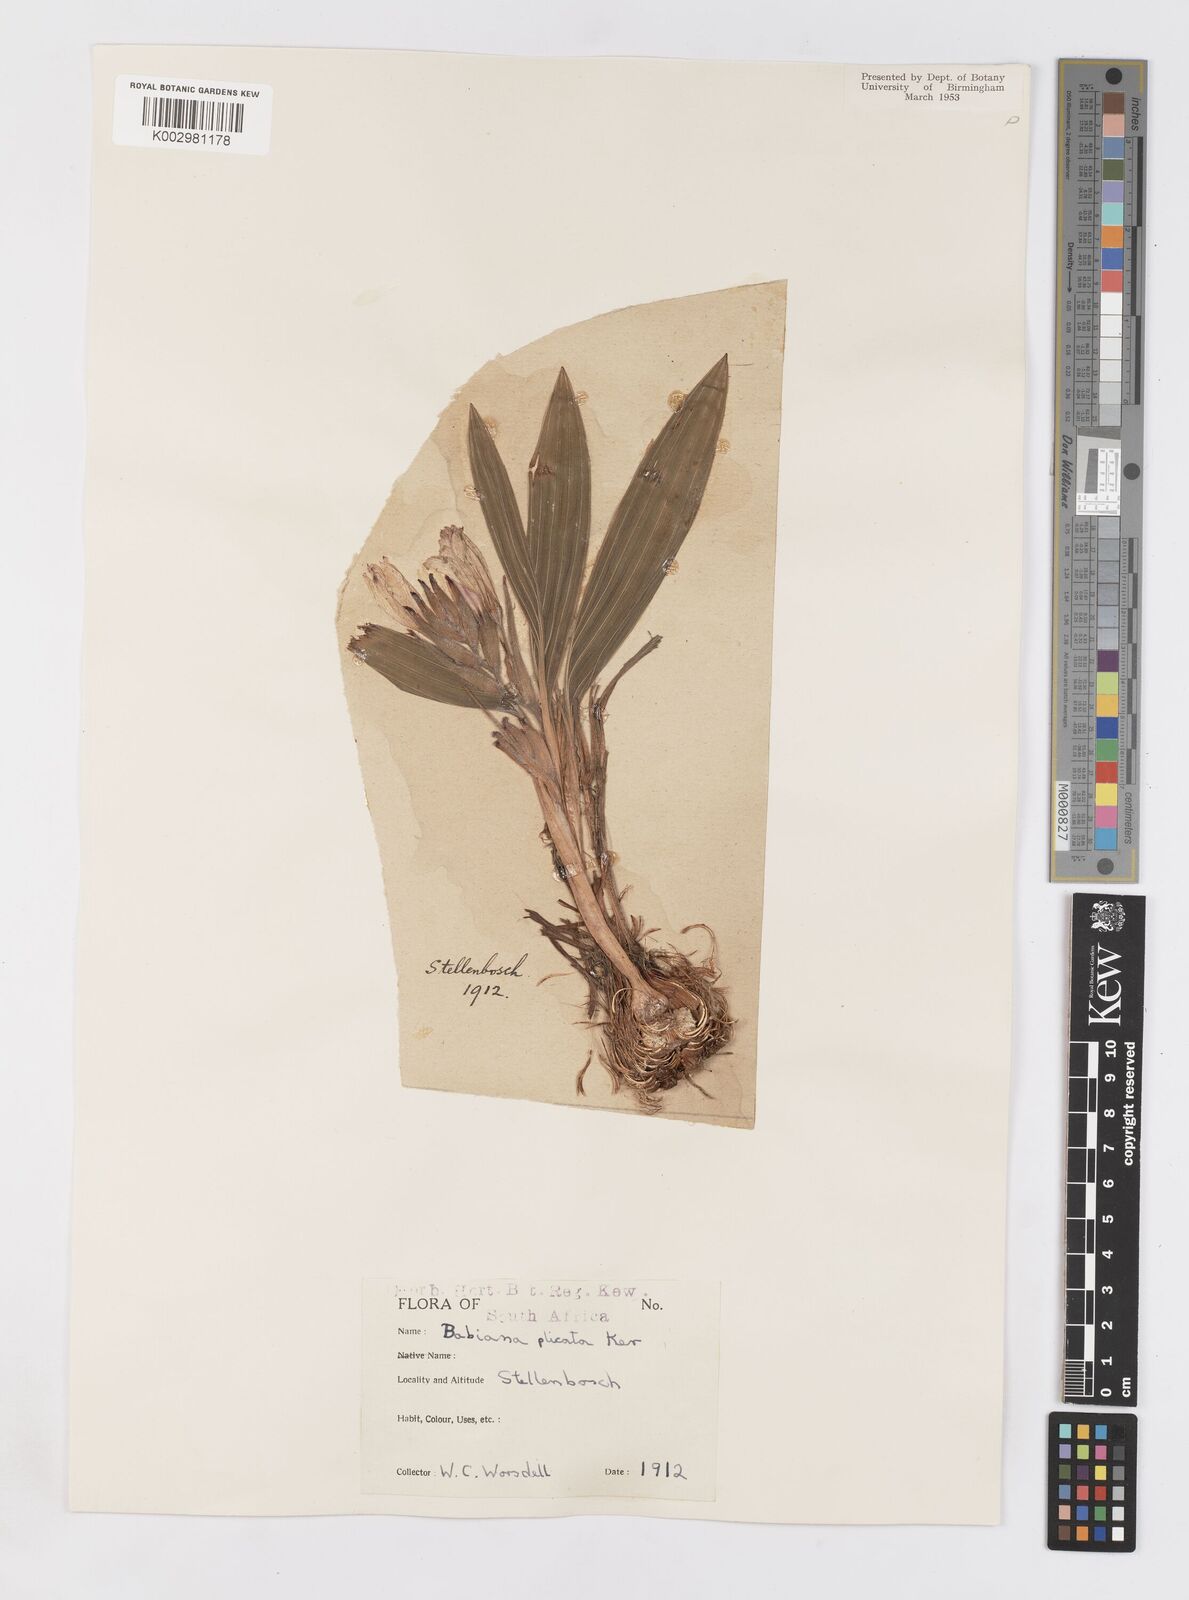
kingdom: Plantae
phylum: Tracheophyta
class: Liliopsida
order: Asparagales
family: Iridaceae
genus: Babiana
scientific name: Babiana fragrans
